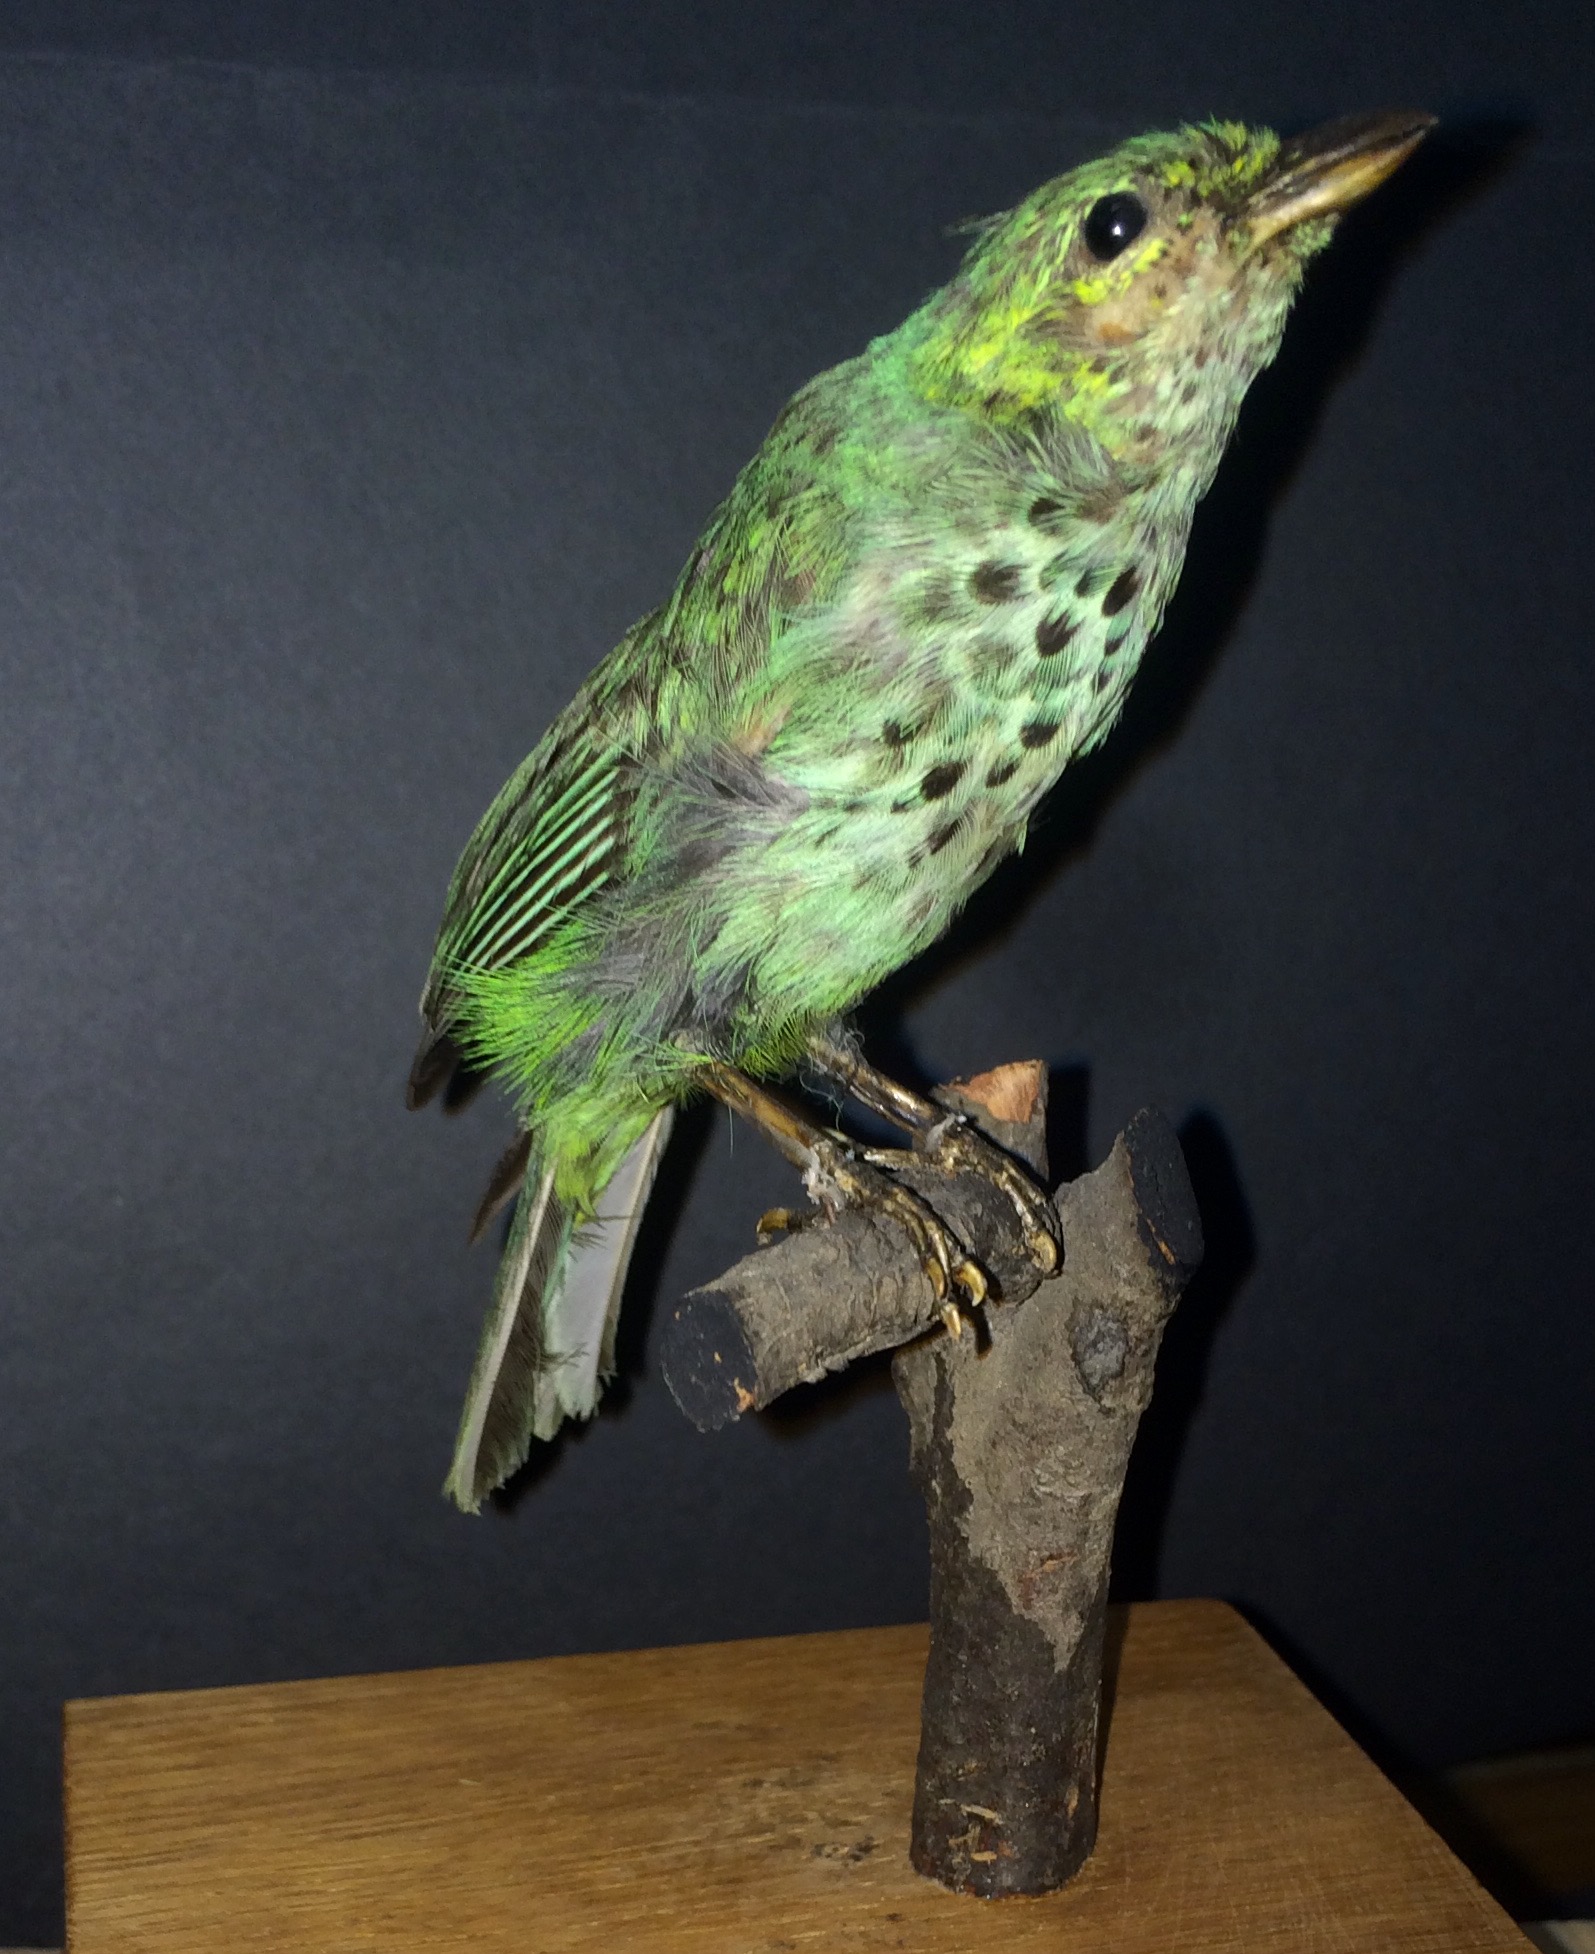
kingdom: Animalia
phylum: Mollusca
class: Bivalvia
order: Venerida
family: Veneridae
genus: Callista
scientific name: Callista
